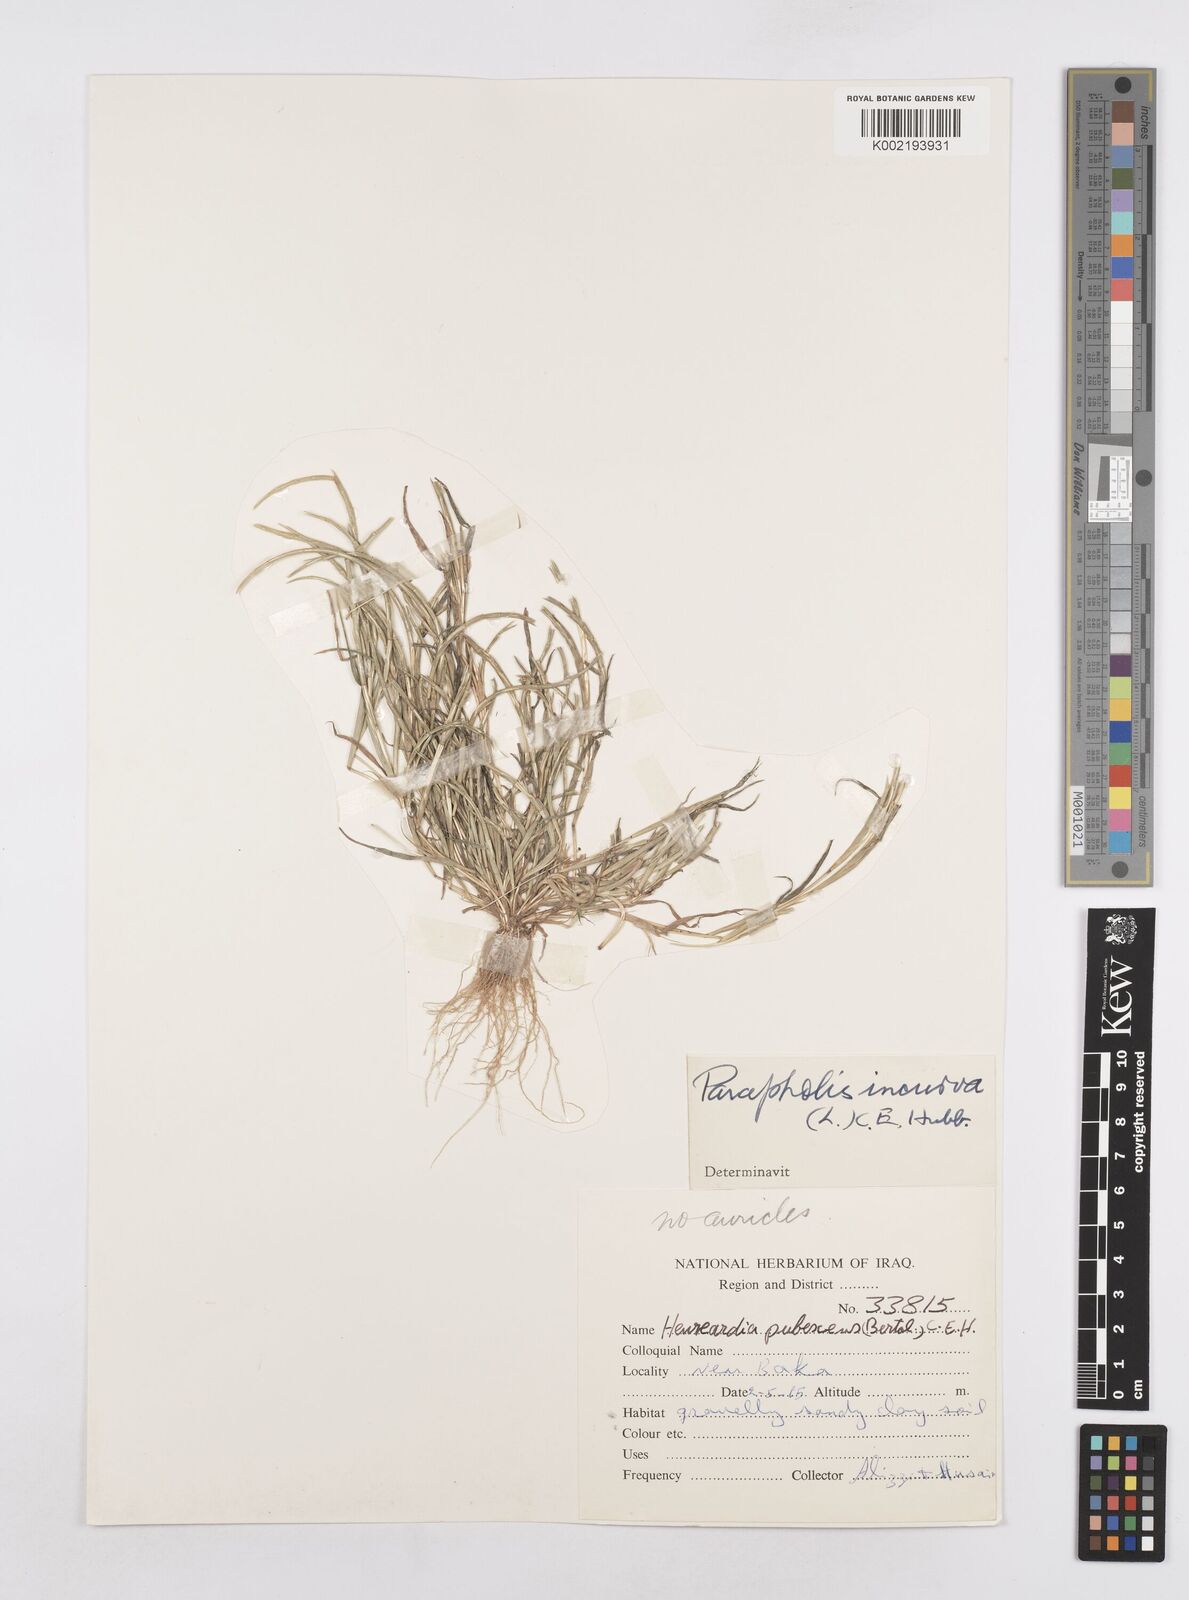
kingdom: Plantae
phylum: Tracheophyta
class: Liliopsida
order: Poales
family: Poaceae
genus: Parapholis
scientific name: Parapholis incurva
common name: Curved sicklegrass
